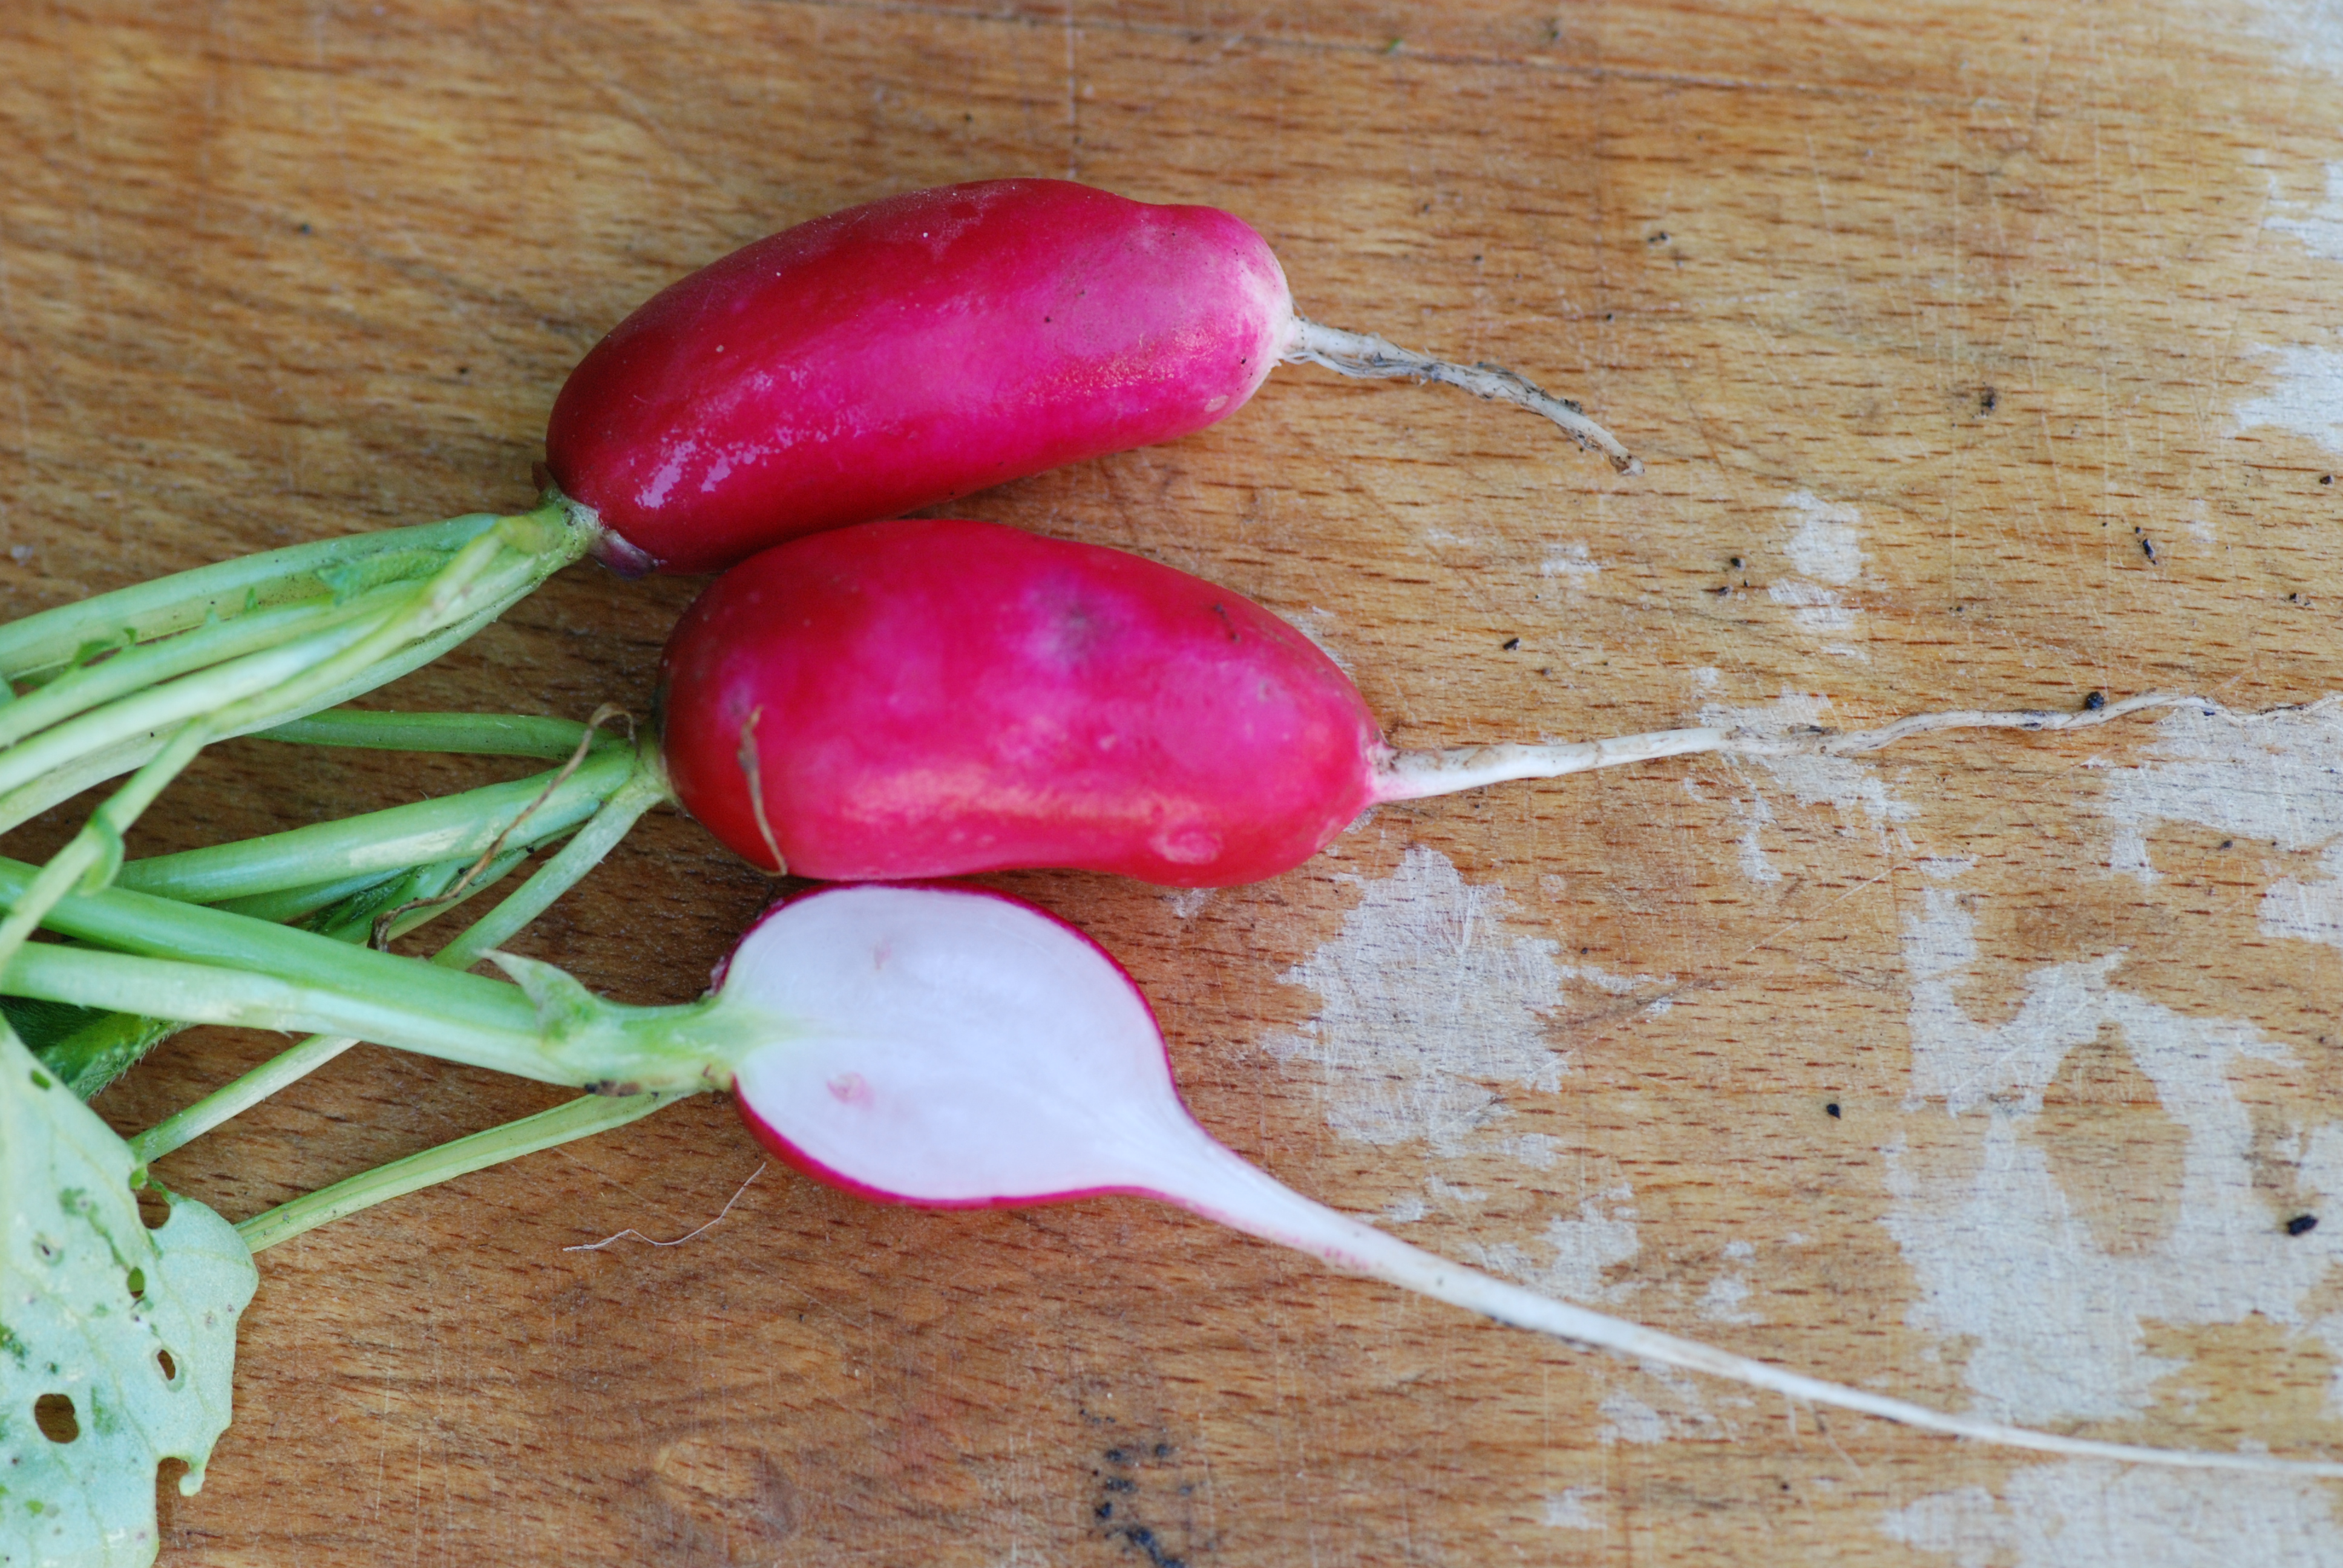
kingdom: Plantae
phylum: Tracheophyta
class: Magnoliopsida
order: Brassicales
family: Brassicaceae
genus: Raphanus
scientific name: Raphanus sativus
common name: Cultivated radish
